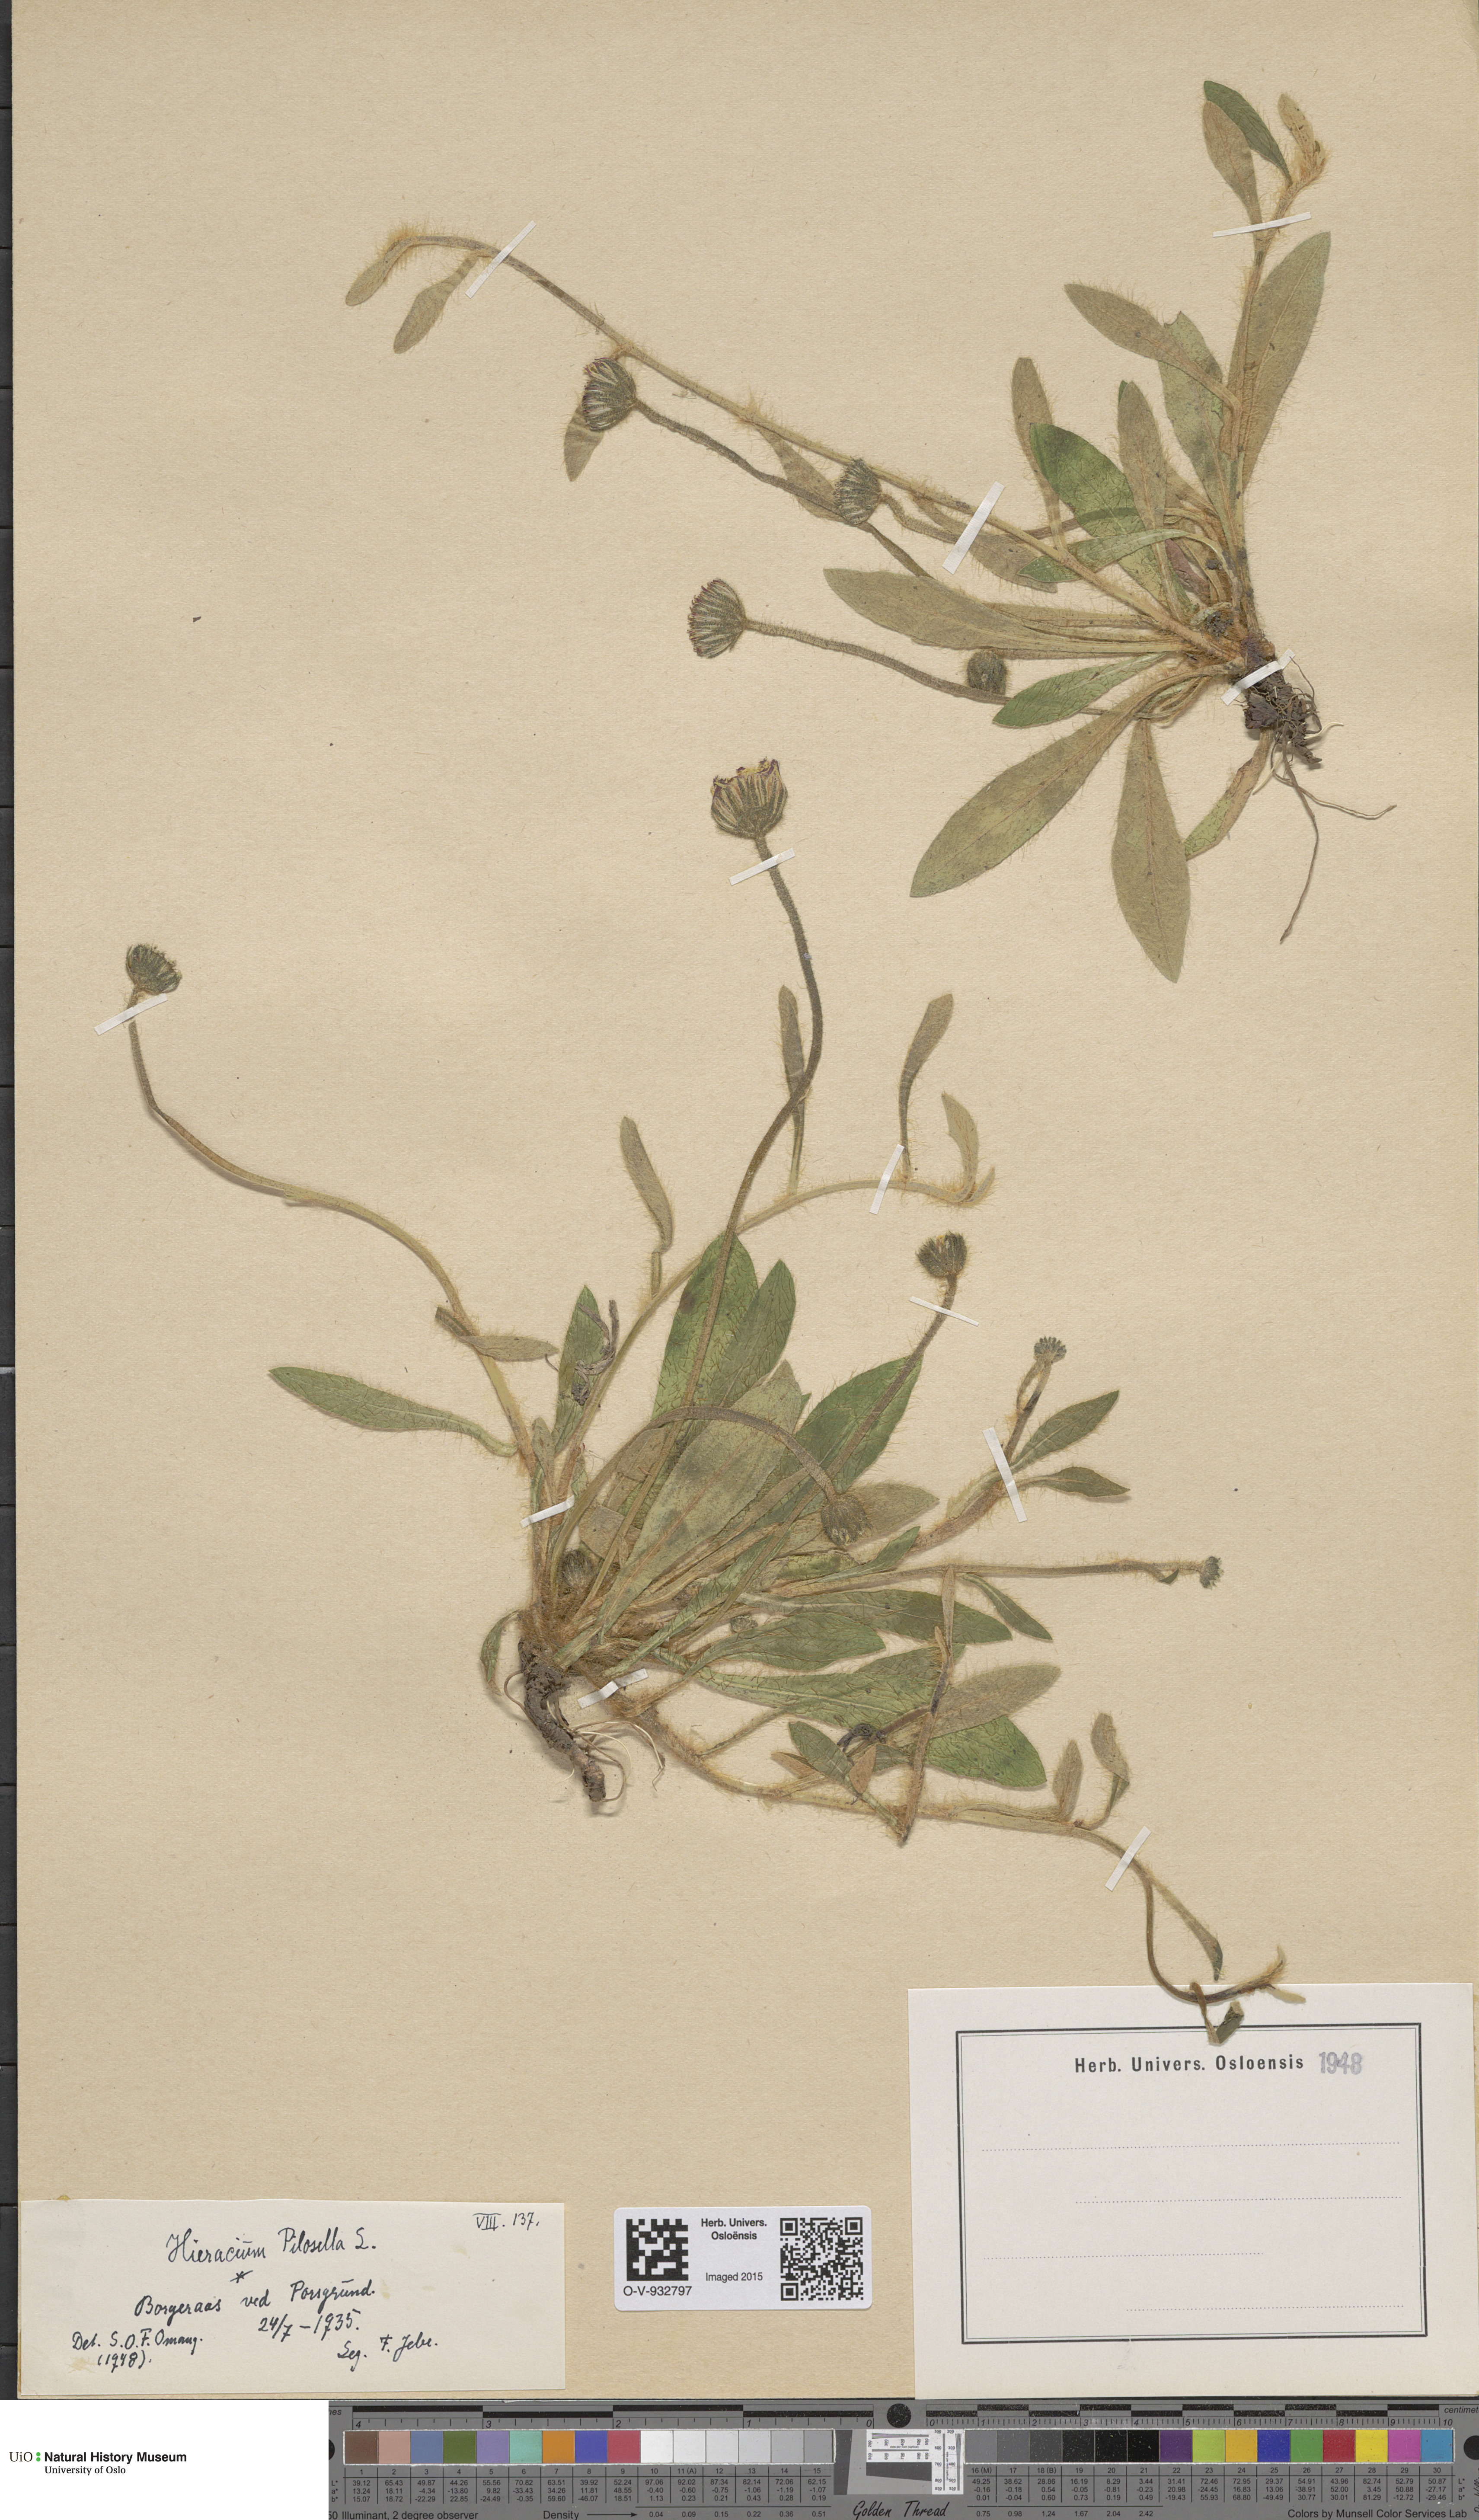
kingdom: Plantae
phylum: Tracheophyta
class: Magnoliopsida
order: Asterales
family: Asteraceae
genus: Pilosella
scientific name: Pilosella officinarum
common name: Mouse-ear hawkweed
